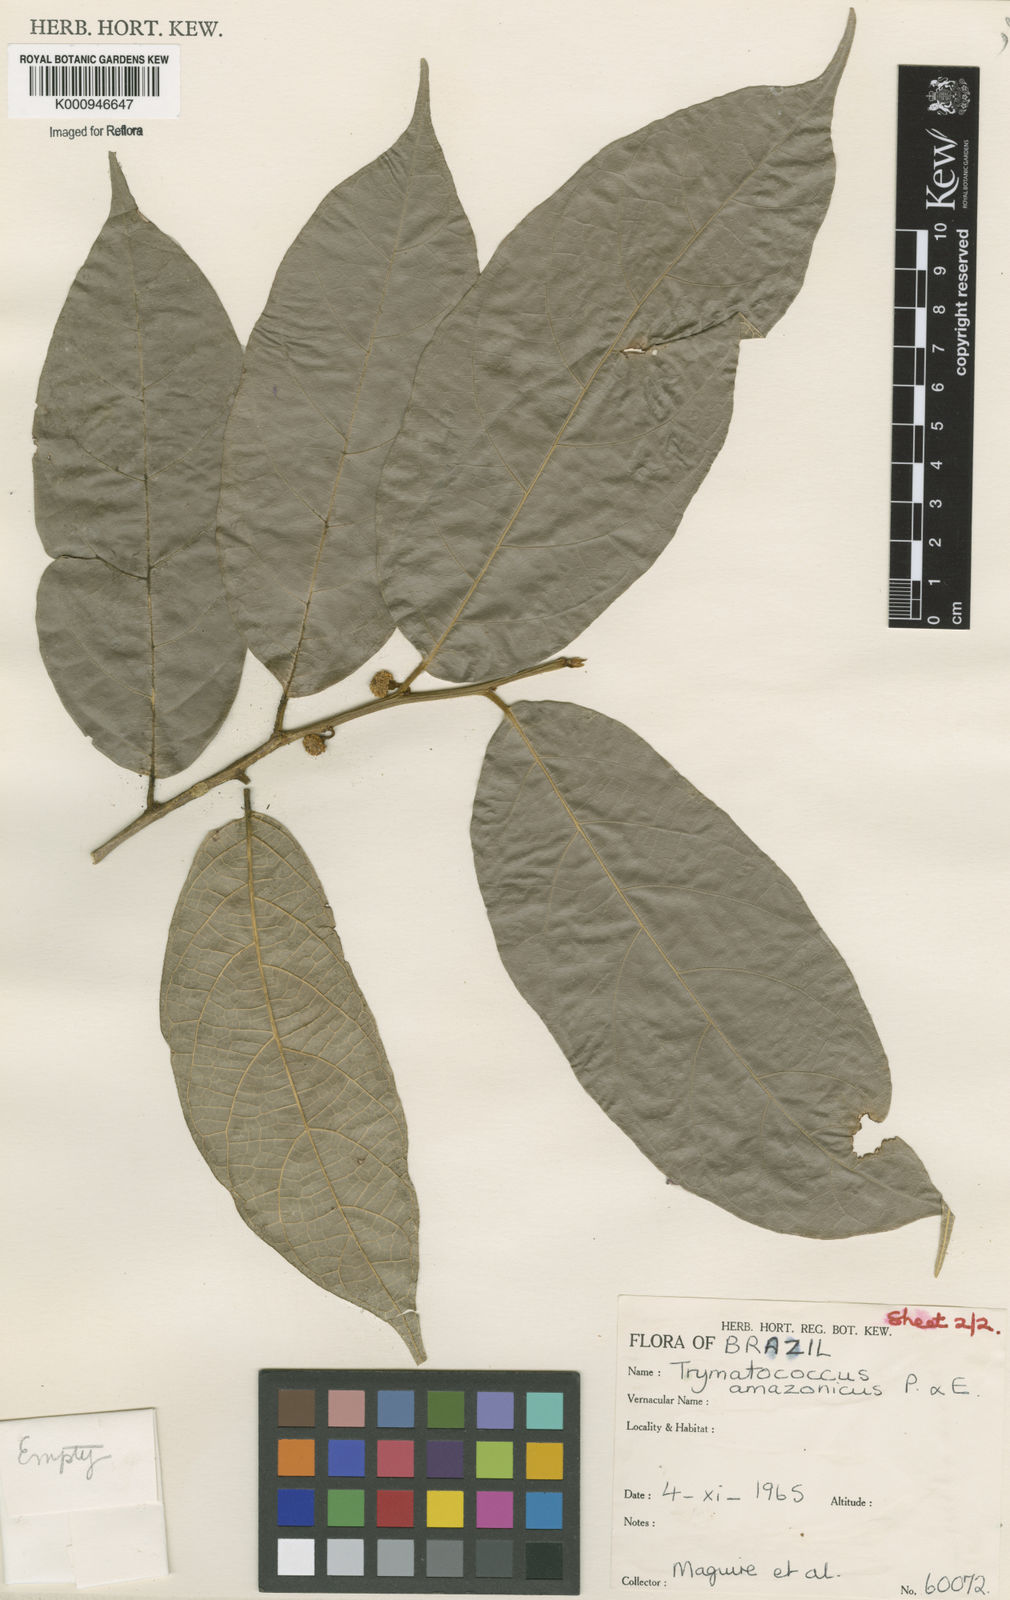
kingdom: Plantae
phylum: Tracheophyta
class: Magnoliopsida
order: Rosales
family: Moraceae
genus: Brosimum
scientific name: Brosimum amazonicum
